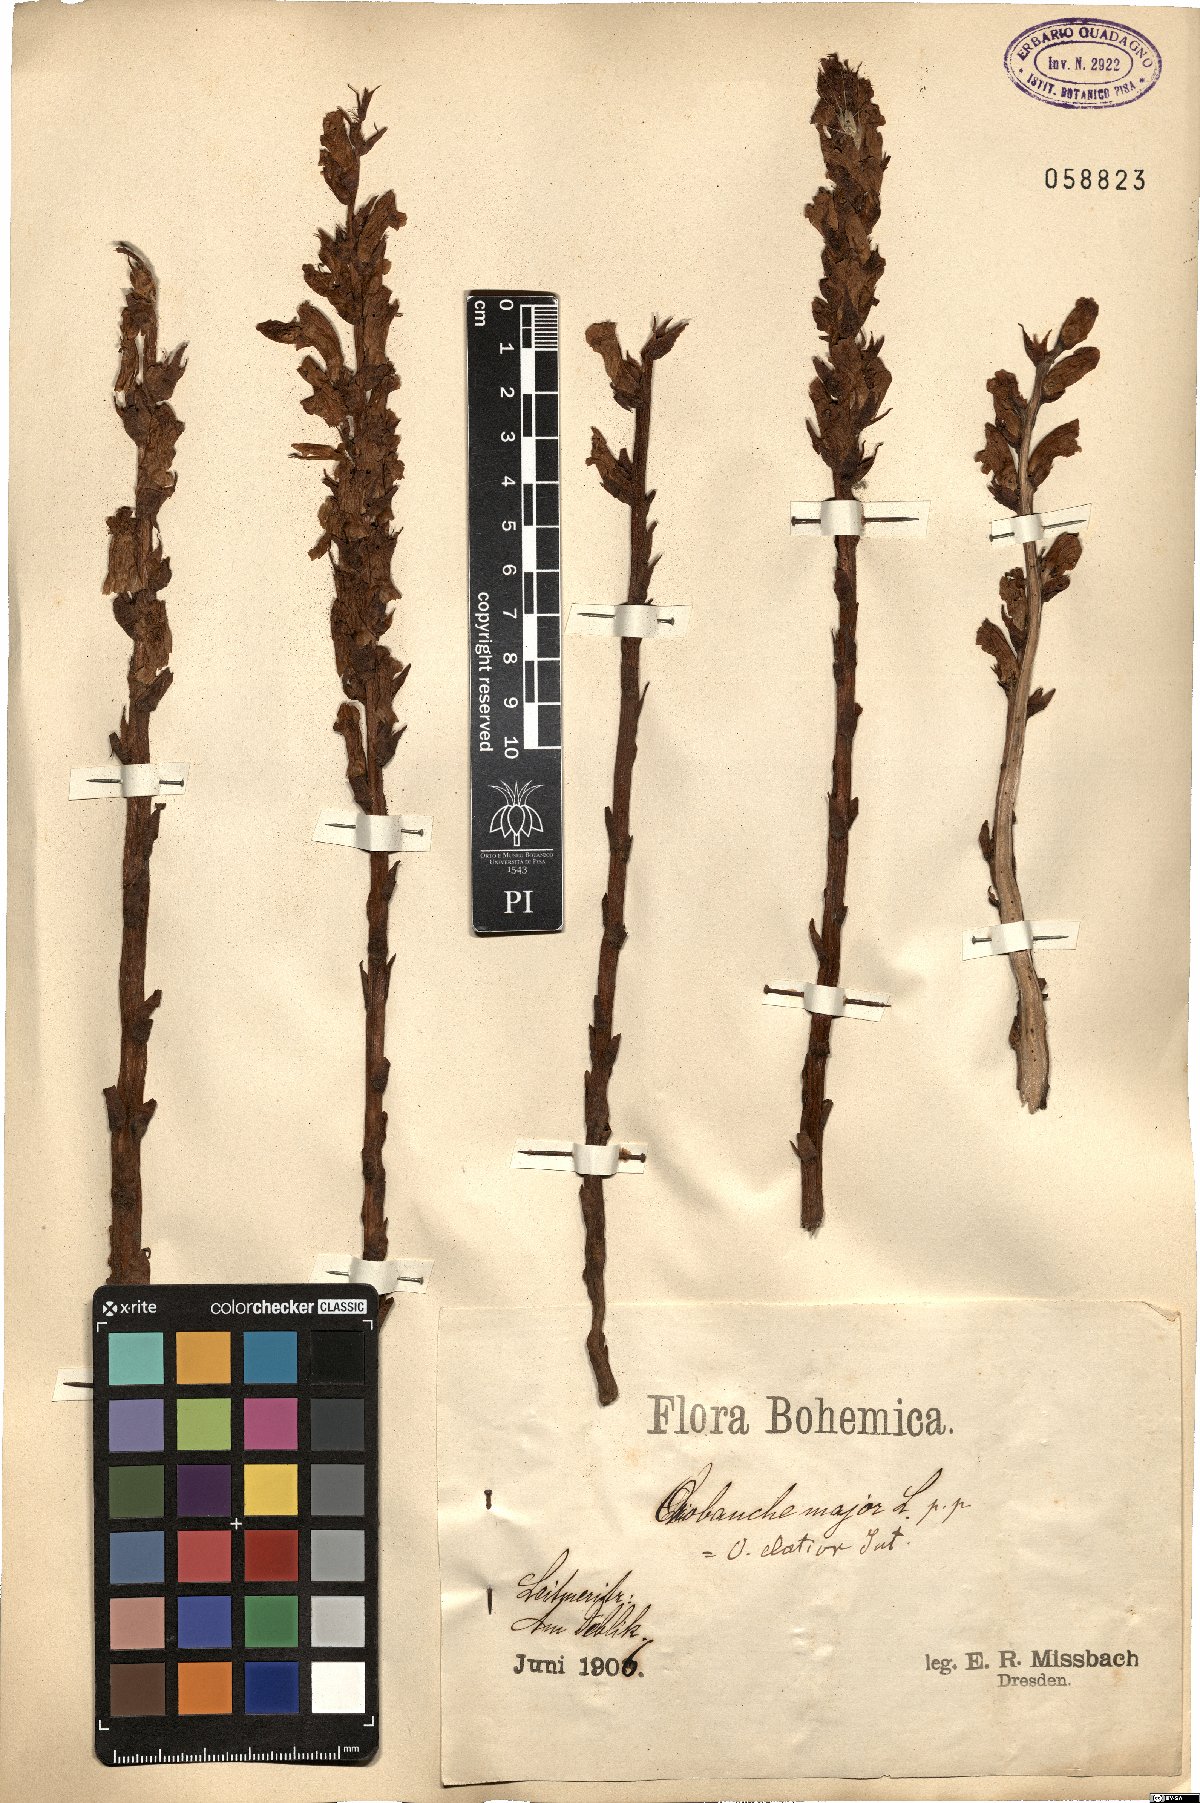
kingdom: Plantae
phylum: Tracheophyta
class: Magnoliopsida
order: Lamiales
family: Orobanchaceae
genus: Orobanche
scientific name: Orobanche rapum-genistae
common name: Greater broomrape
